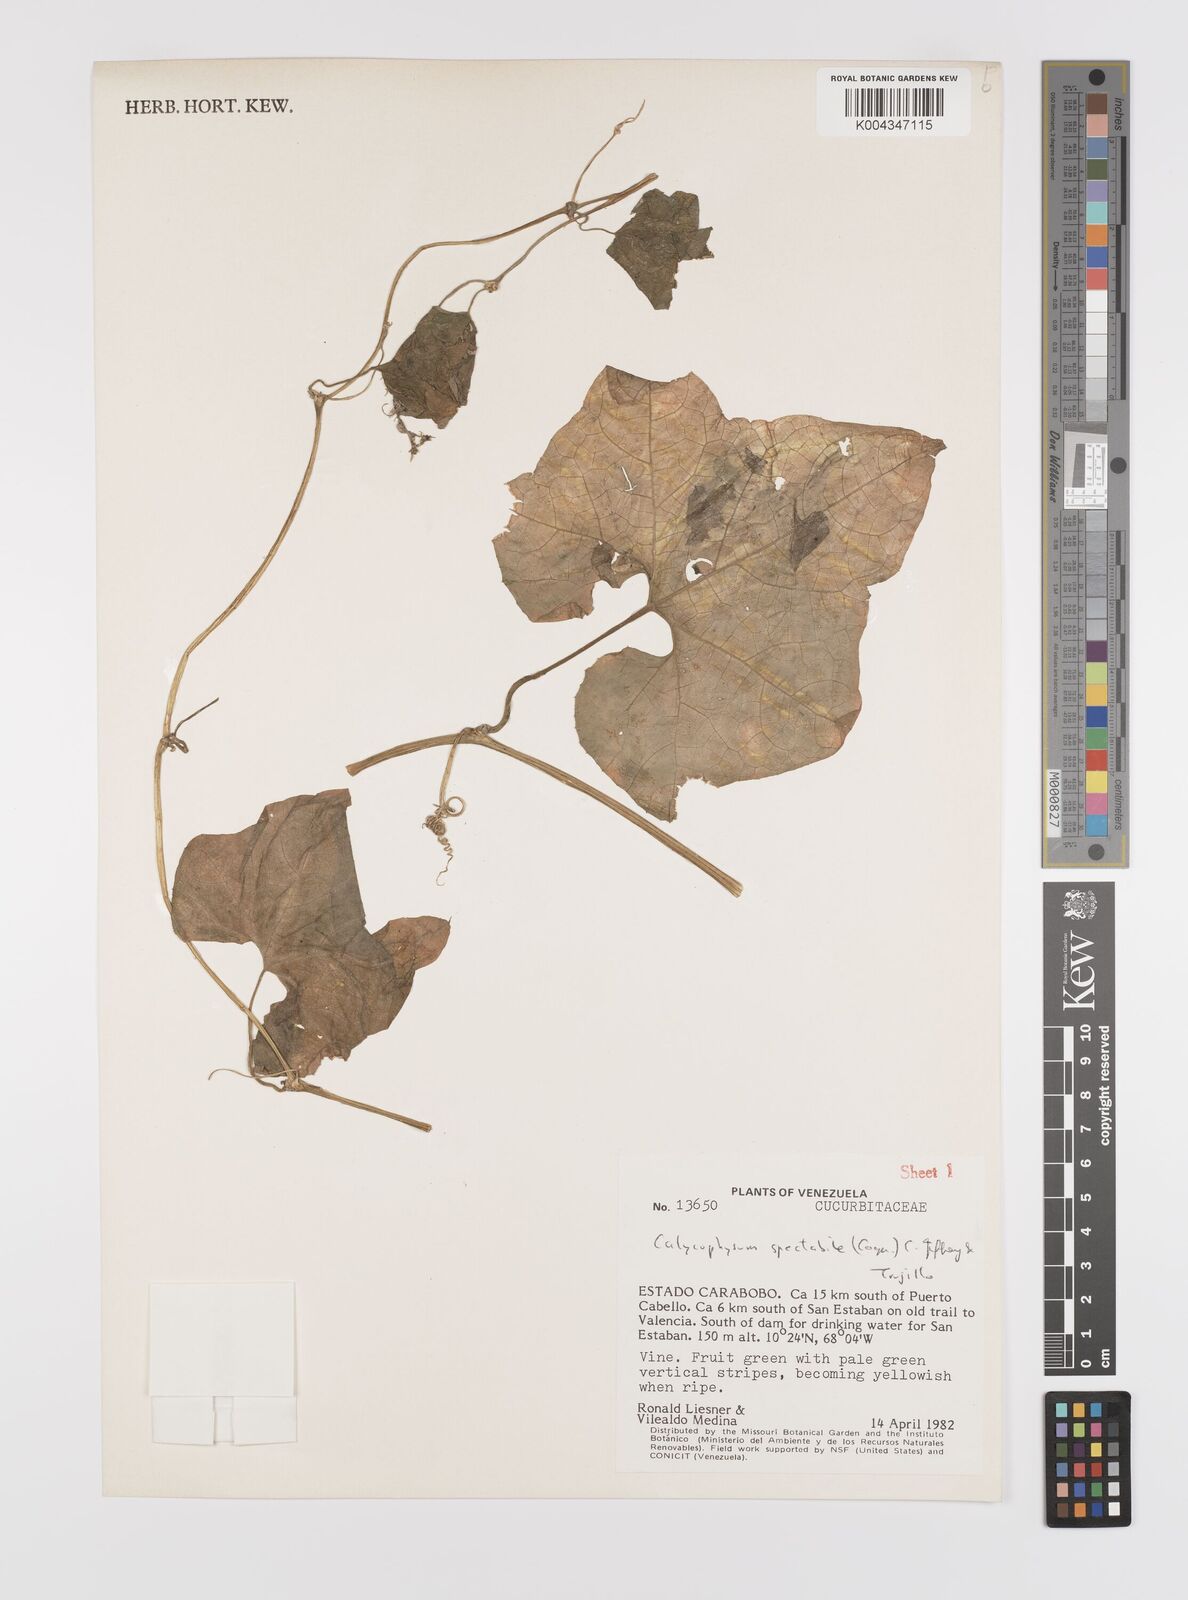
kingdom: Plantae
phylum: Tracheophyta
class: Magnoliopsida
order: Cucurbitales
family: Cucurbitaceae
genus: Calycophysum
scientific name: Calycophysum spectabile
